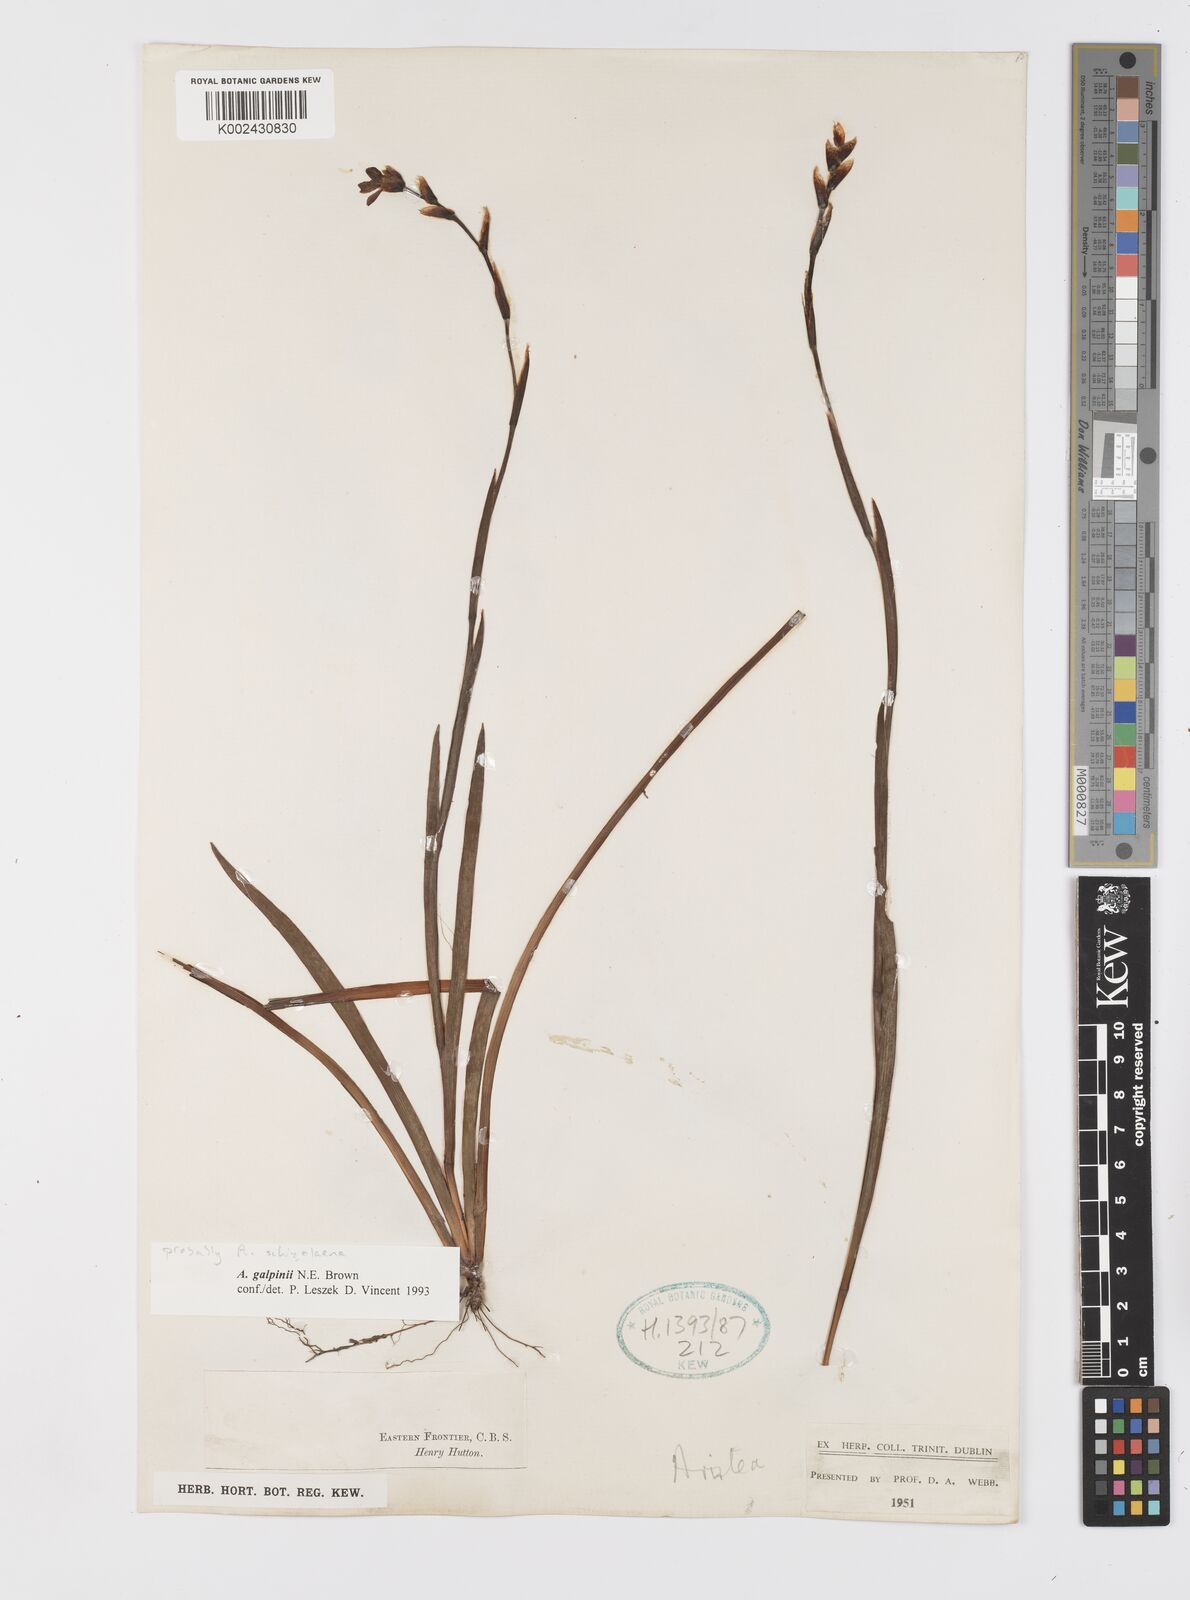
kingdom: Plantae
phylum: Tracheophyta
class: Liliopsida
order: Asparagales
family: Iridaceae
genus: Aristea
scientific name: Aristea schizolaena
